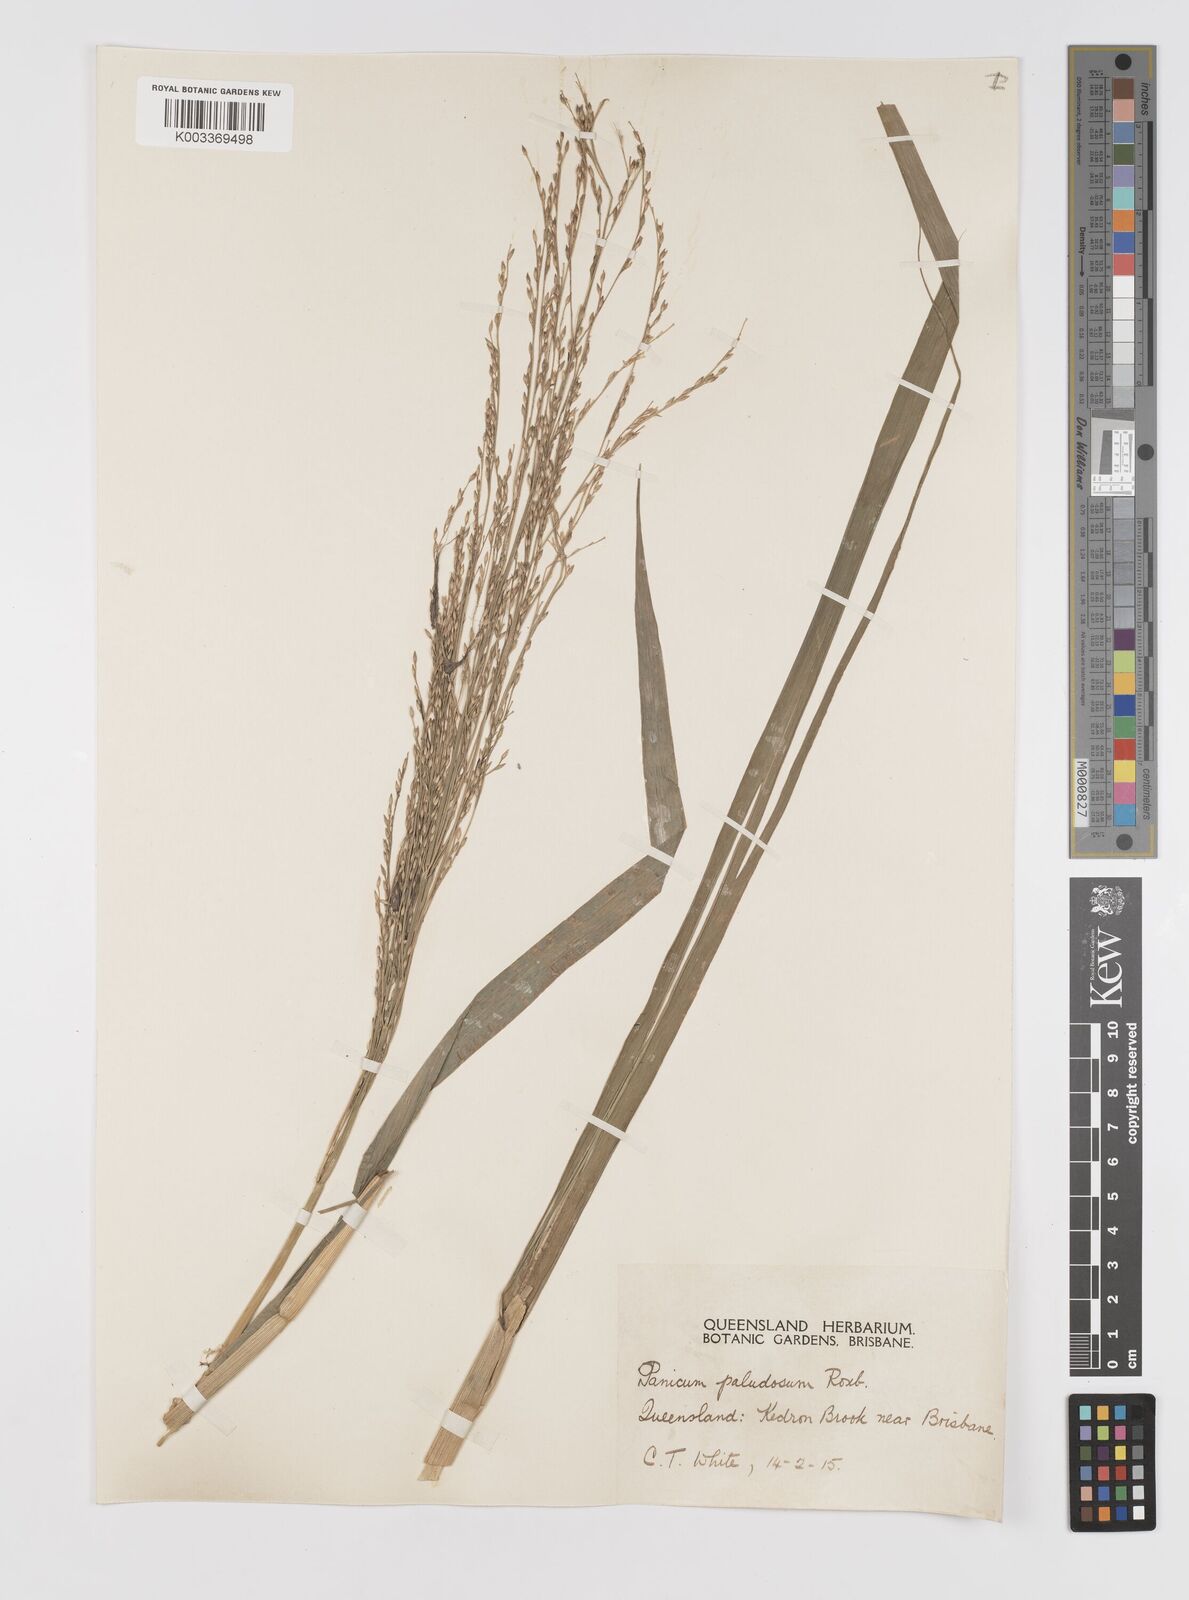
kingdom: Plantae
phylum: Tracheophyta
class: Liliopsida
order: Poales
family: Poaceae
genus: Louisiella
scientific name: Louisiella paludosa
